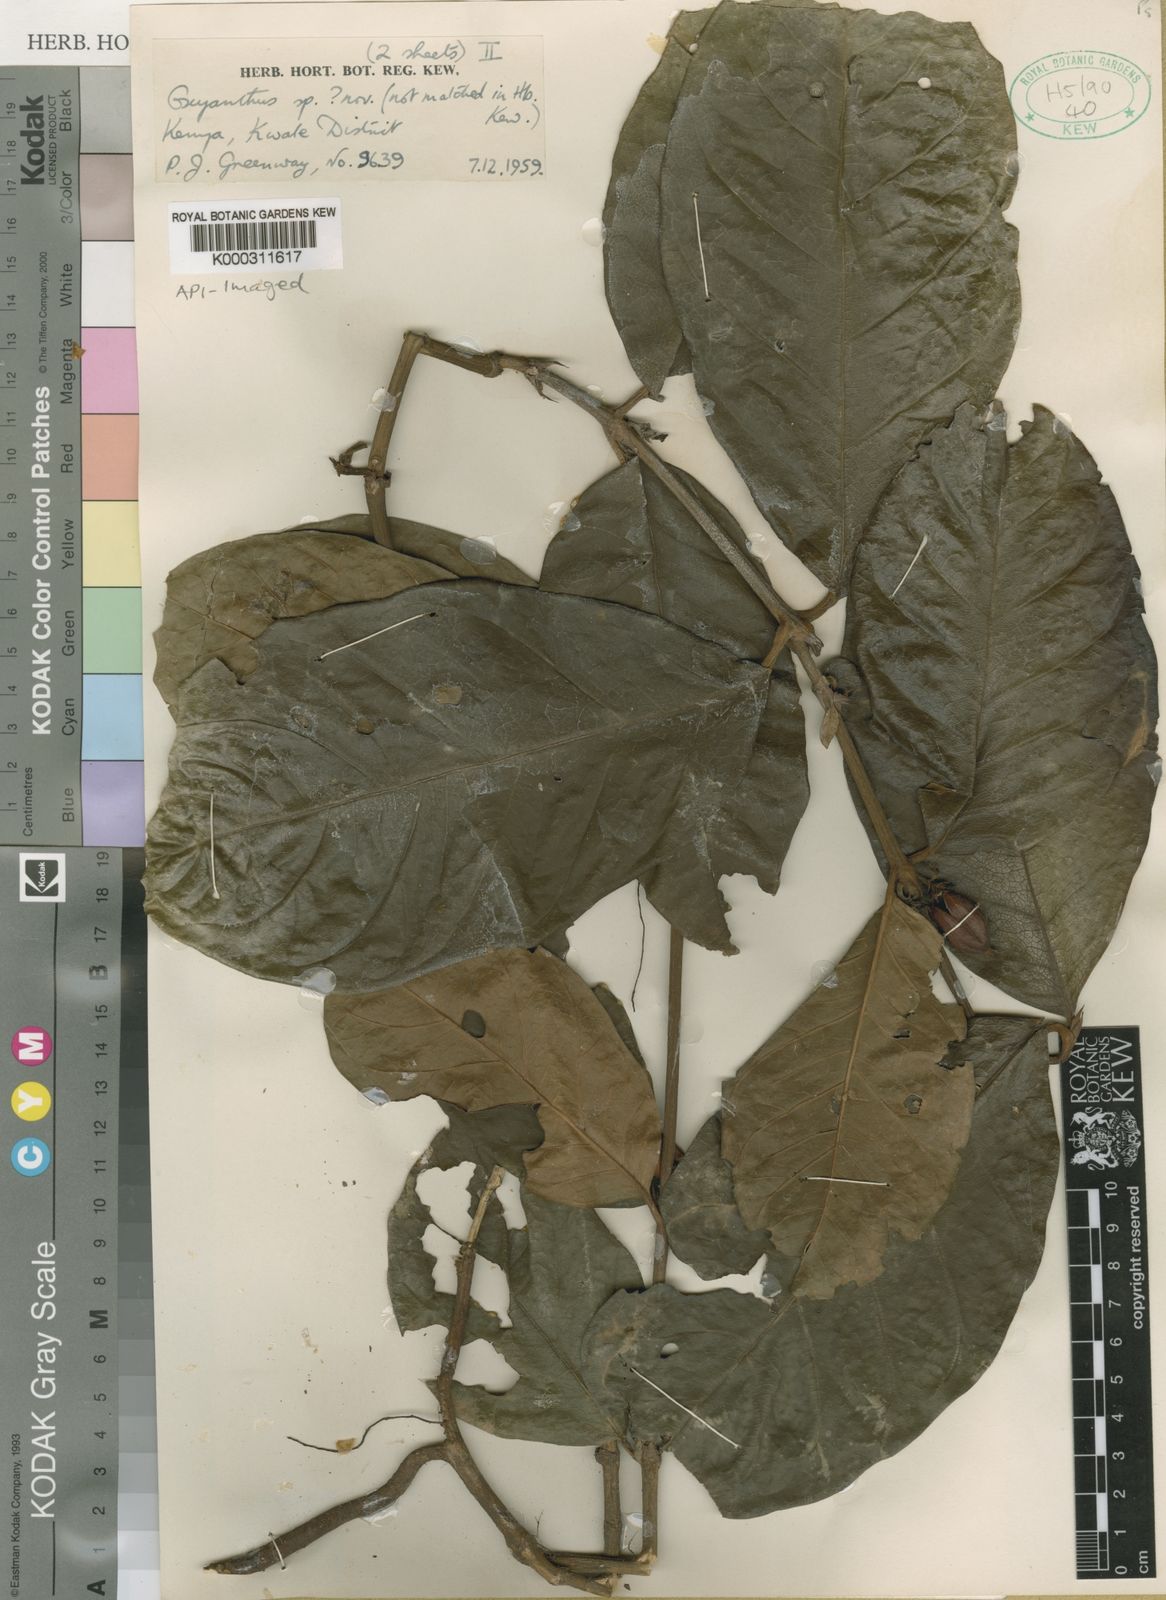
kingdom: Plantae
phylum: Tracheophyta
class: Magnoliopsida
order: Gentianales
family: Rubiaceae
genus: Mitriostigma
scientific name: Mitriostigma greenwayi
